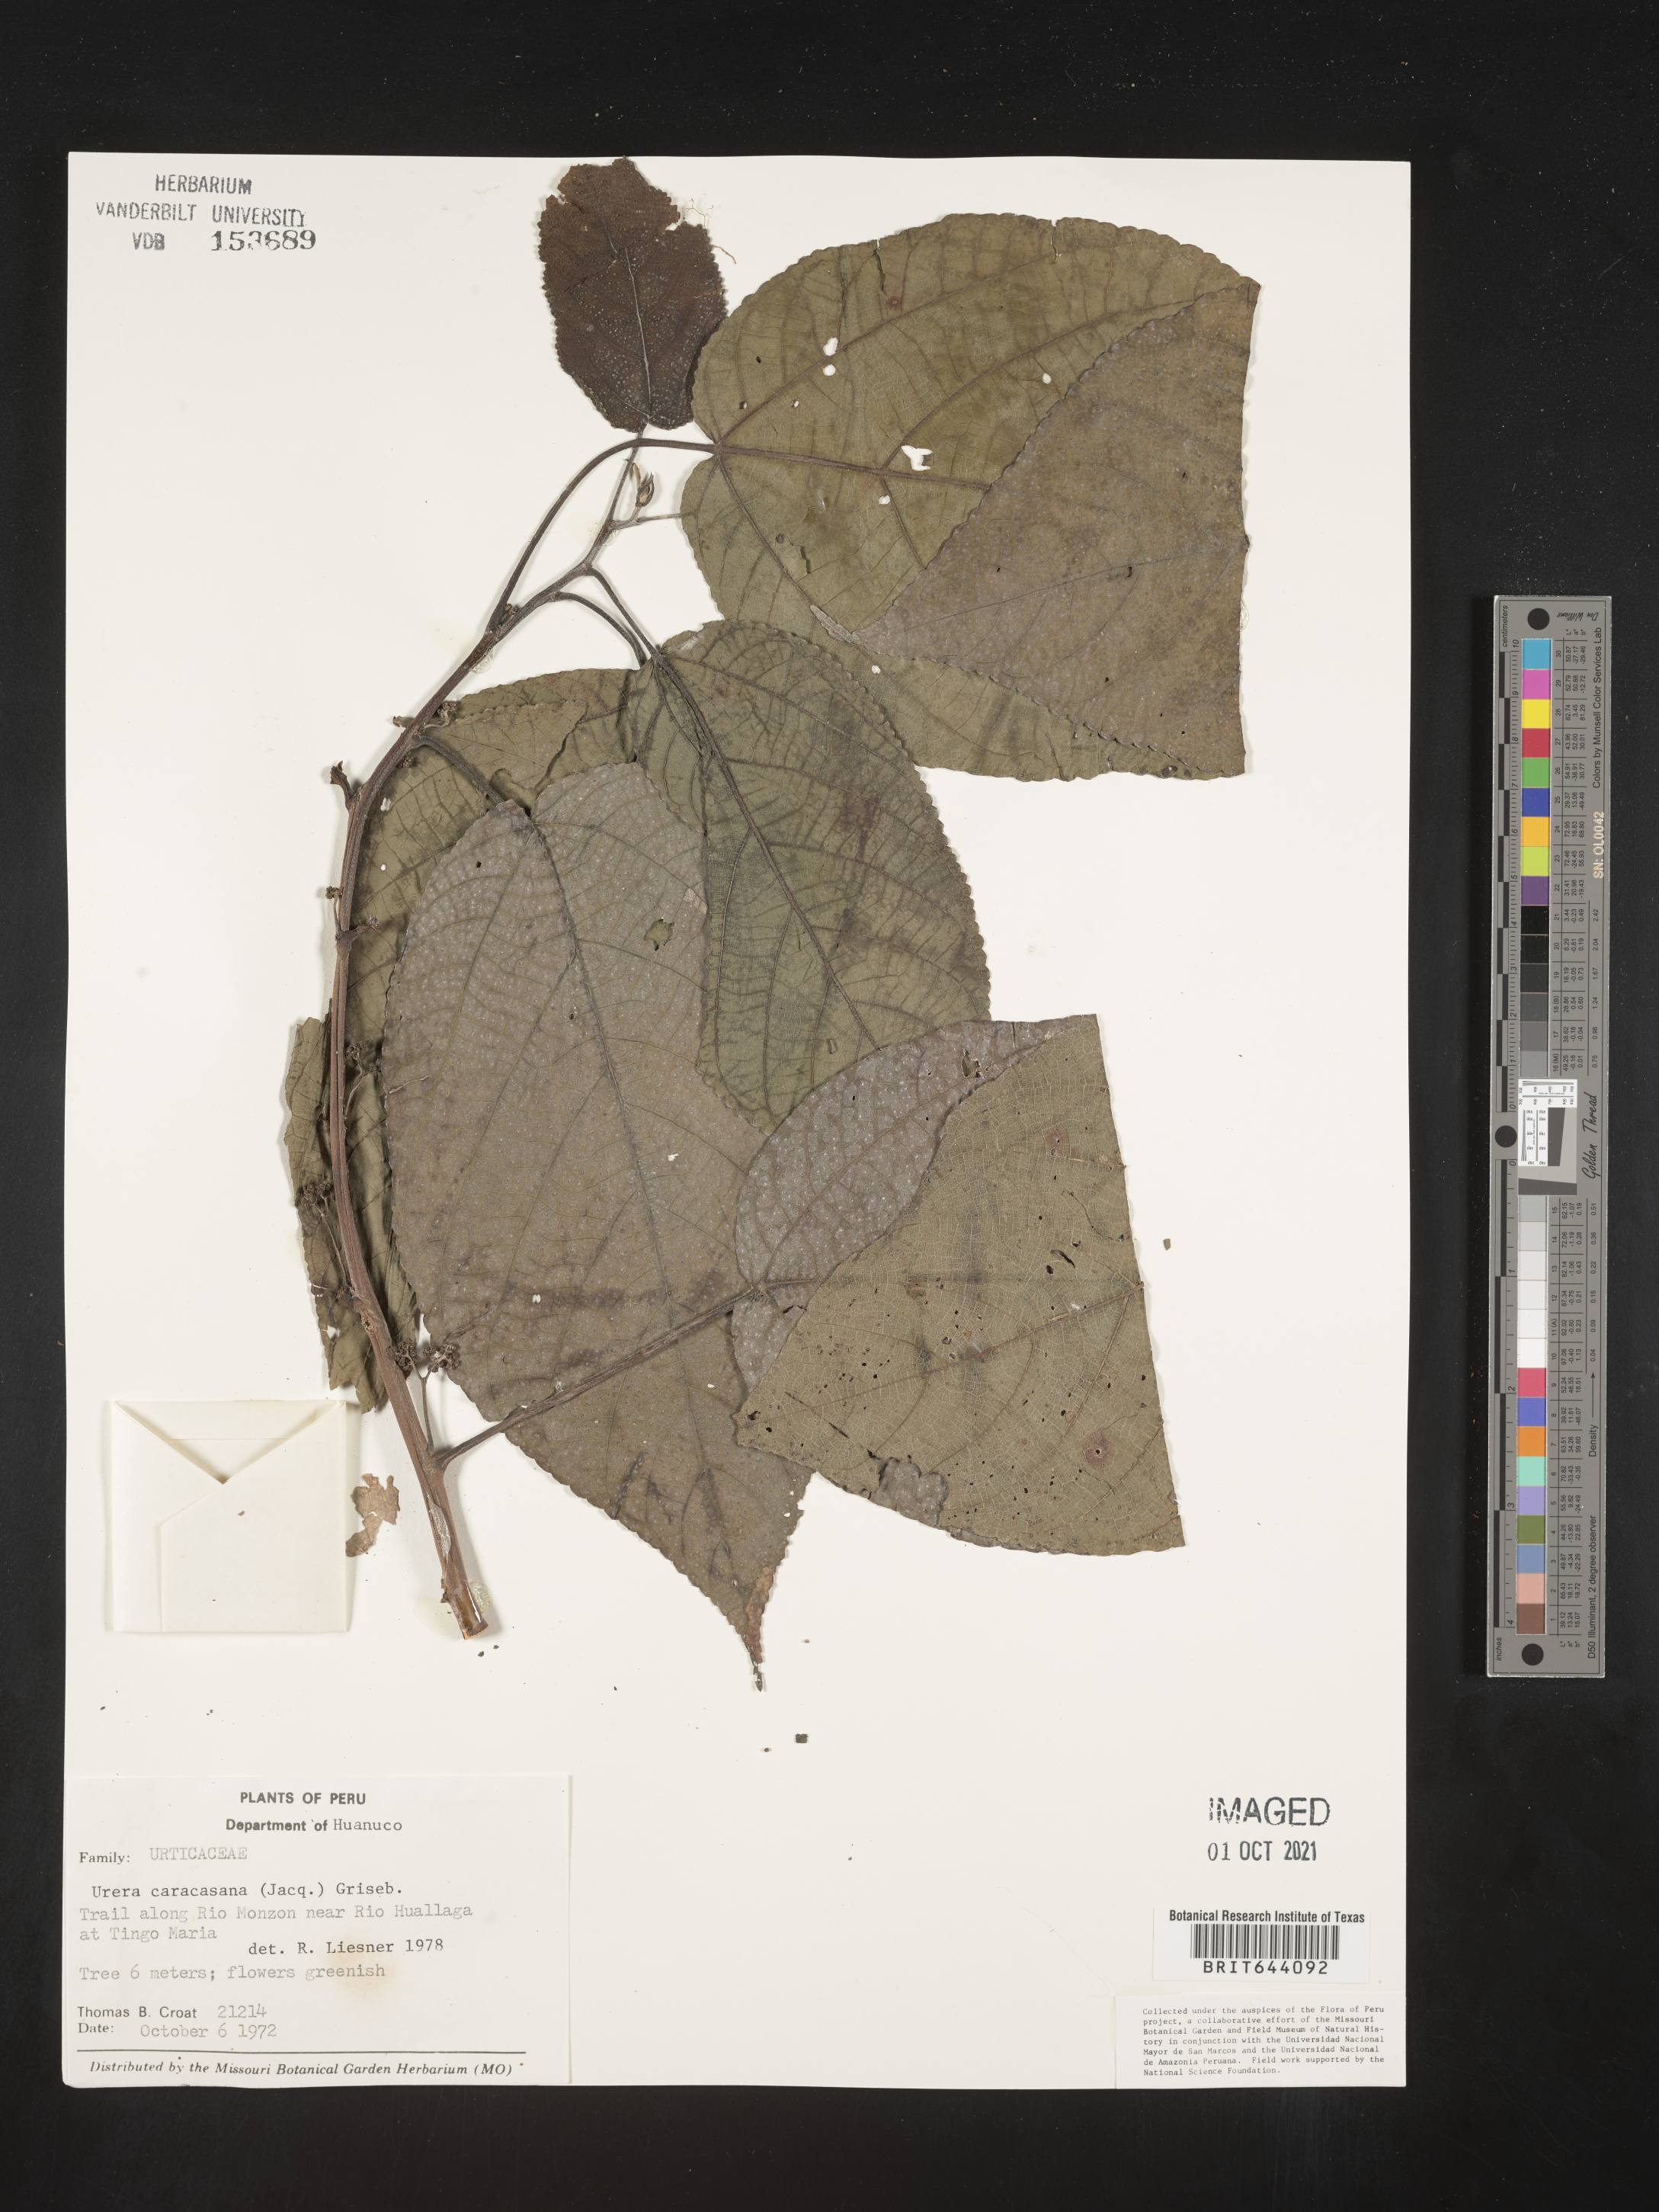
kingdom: Plantae
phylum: Tracheophyta
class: Magnoliopsida
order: Rosales
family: Urticaceae
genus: Urera
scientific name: Urera
